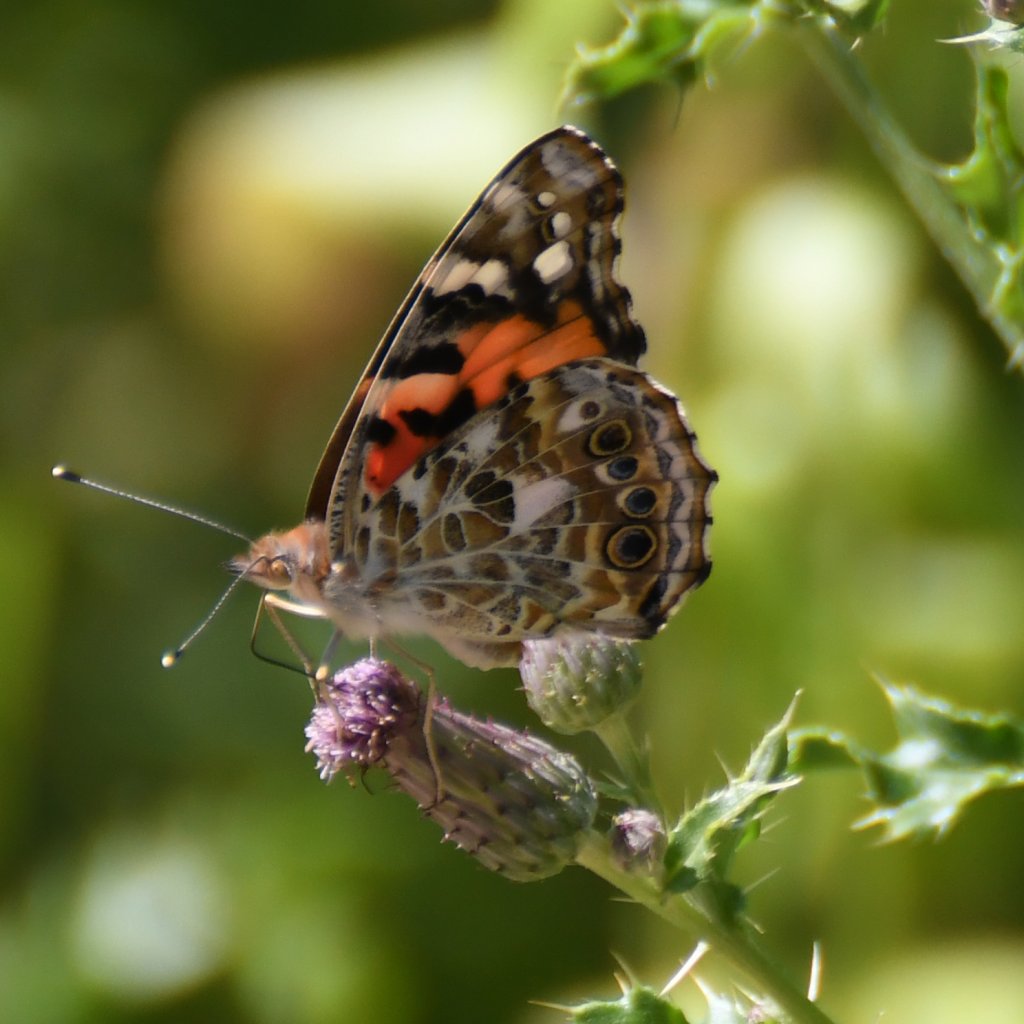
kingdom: Animalia
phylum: Arthropoda
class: Insecta
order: Lepidoptera
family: Nymphalidae
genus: Vanessa
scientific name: Vanessa cardui
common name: Painted Lady
